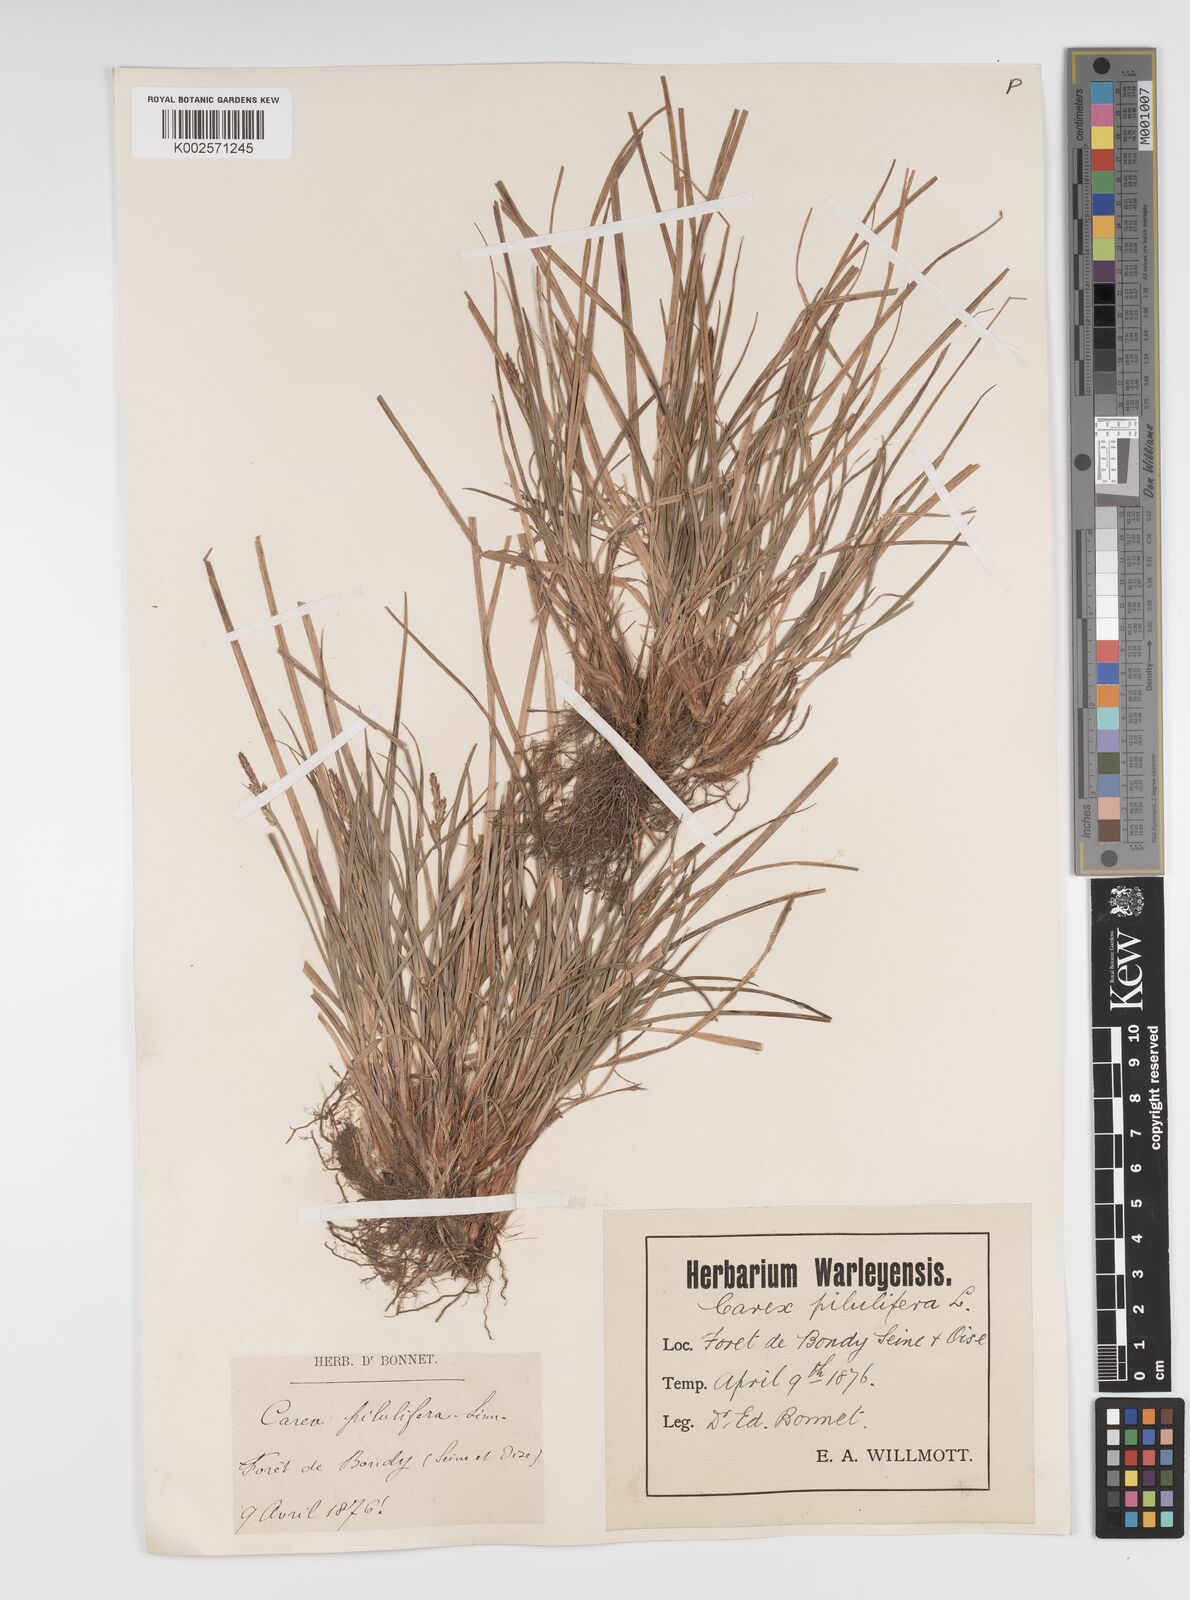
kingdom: Plantae
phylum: Tracheophyta
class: Liliopsida
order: Poales
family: Cyperaceae
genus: Carex
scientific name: Carex pilulifera
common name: Pill sedge
